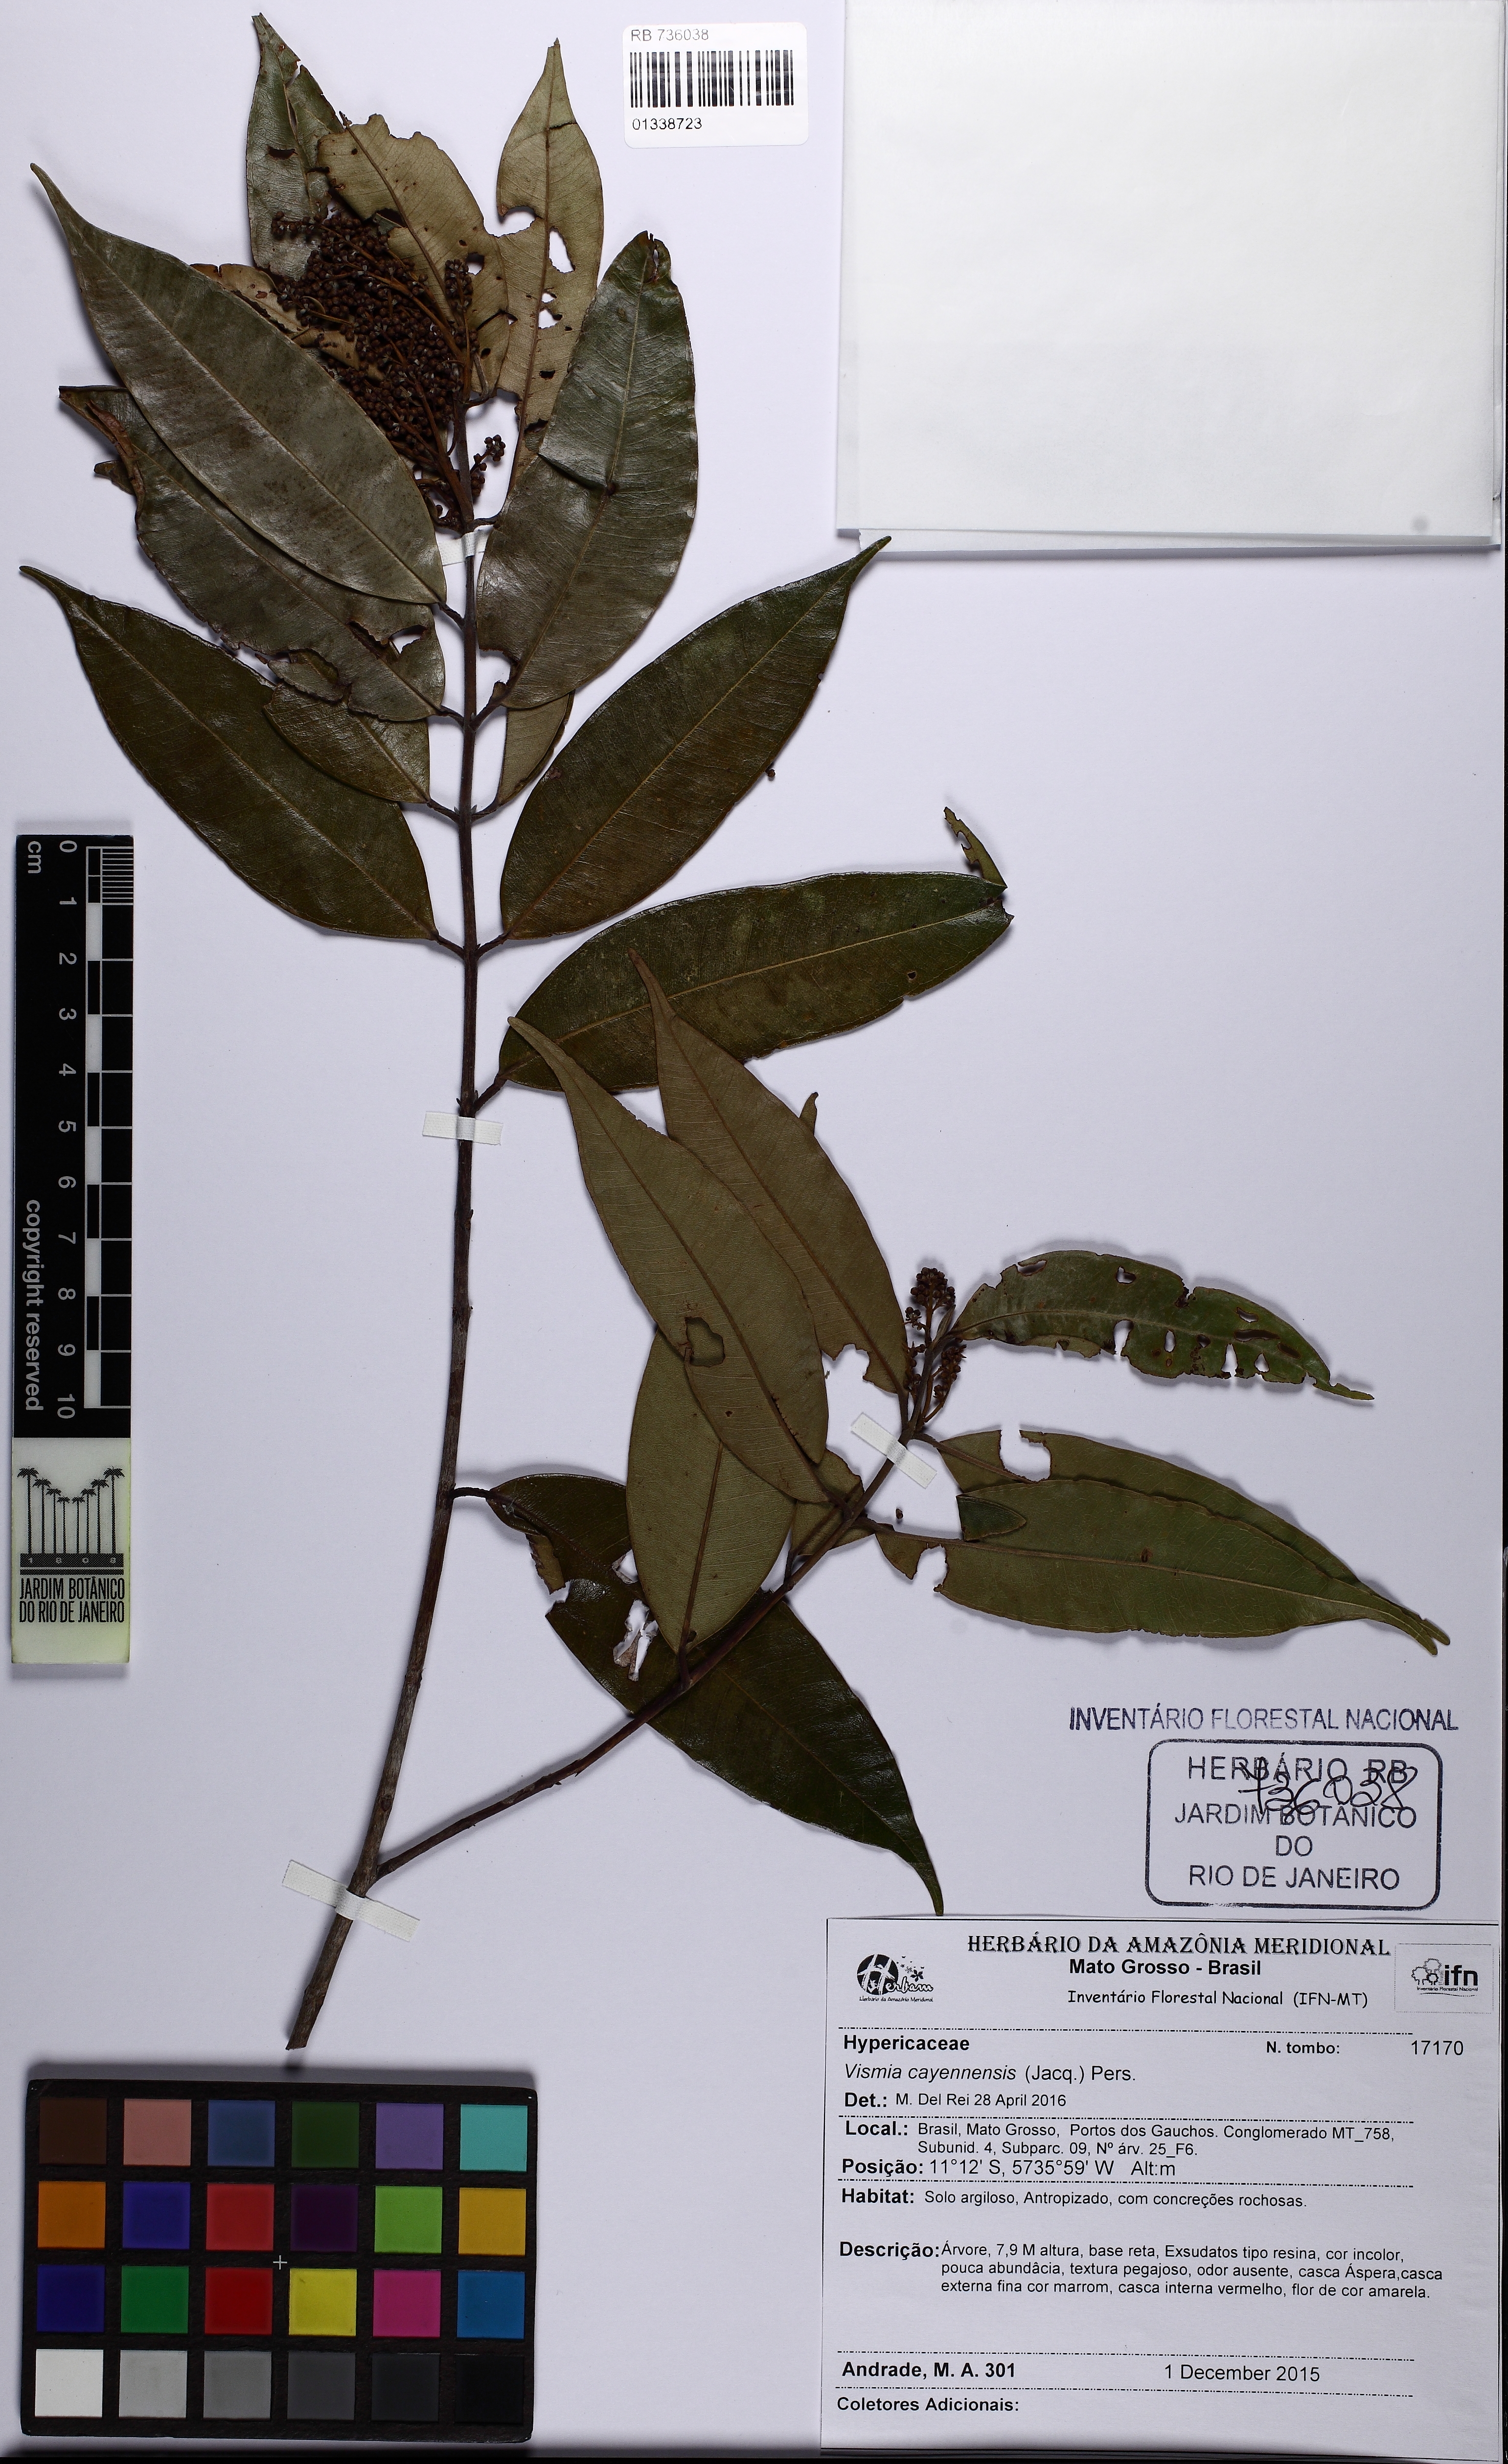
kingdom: Plantae
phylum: Tracheophyta
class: Magnoliopsida
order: Myrtales
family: Myrtaceae
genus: Myrcia
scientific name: Myrcia splendens
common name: Surinam cherry
